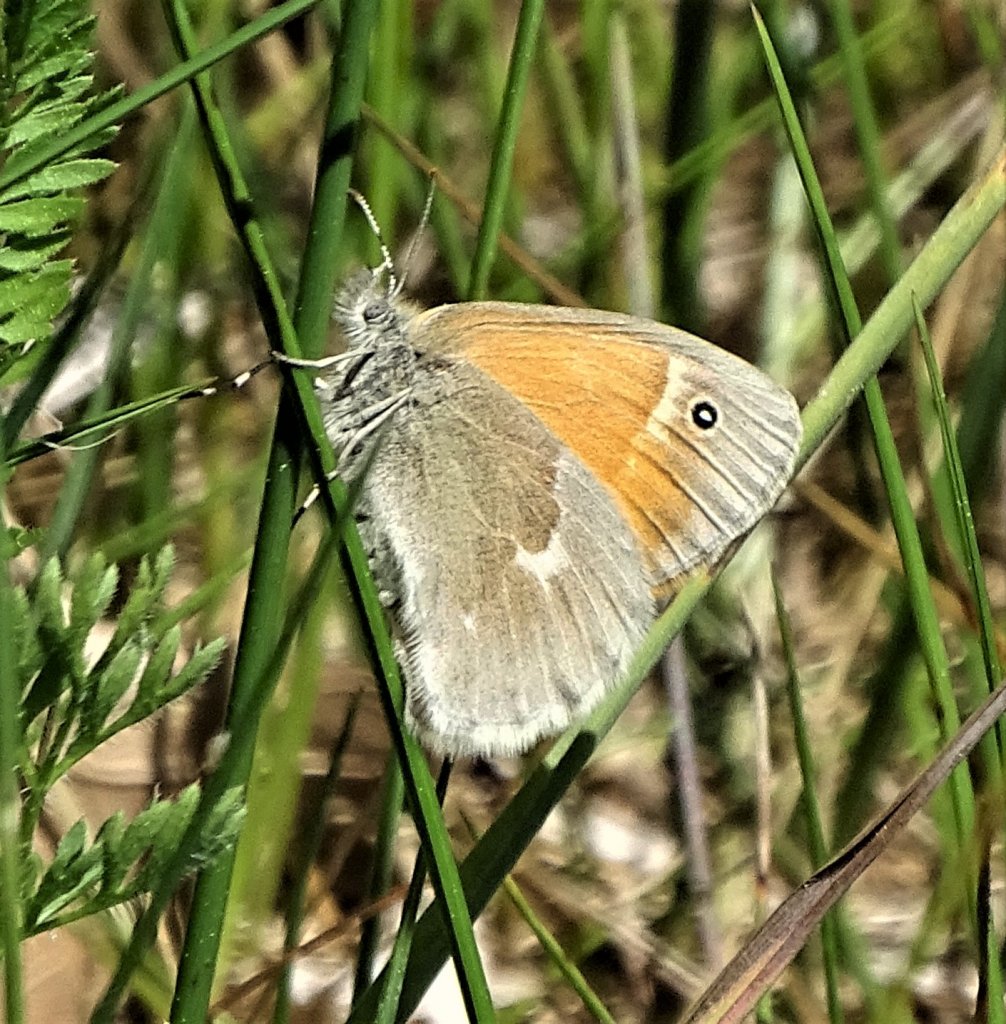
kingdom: Animalia
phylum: Arthropoda
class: Insecta
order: Lepidoptera
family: Nymphalidae
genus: Coenonympha
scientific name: Coenonympha tullia
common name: Large Heath
